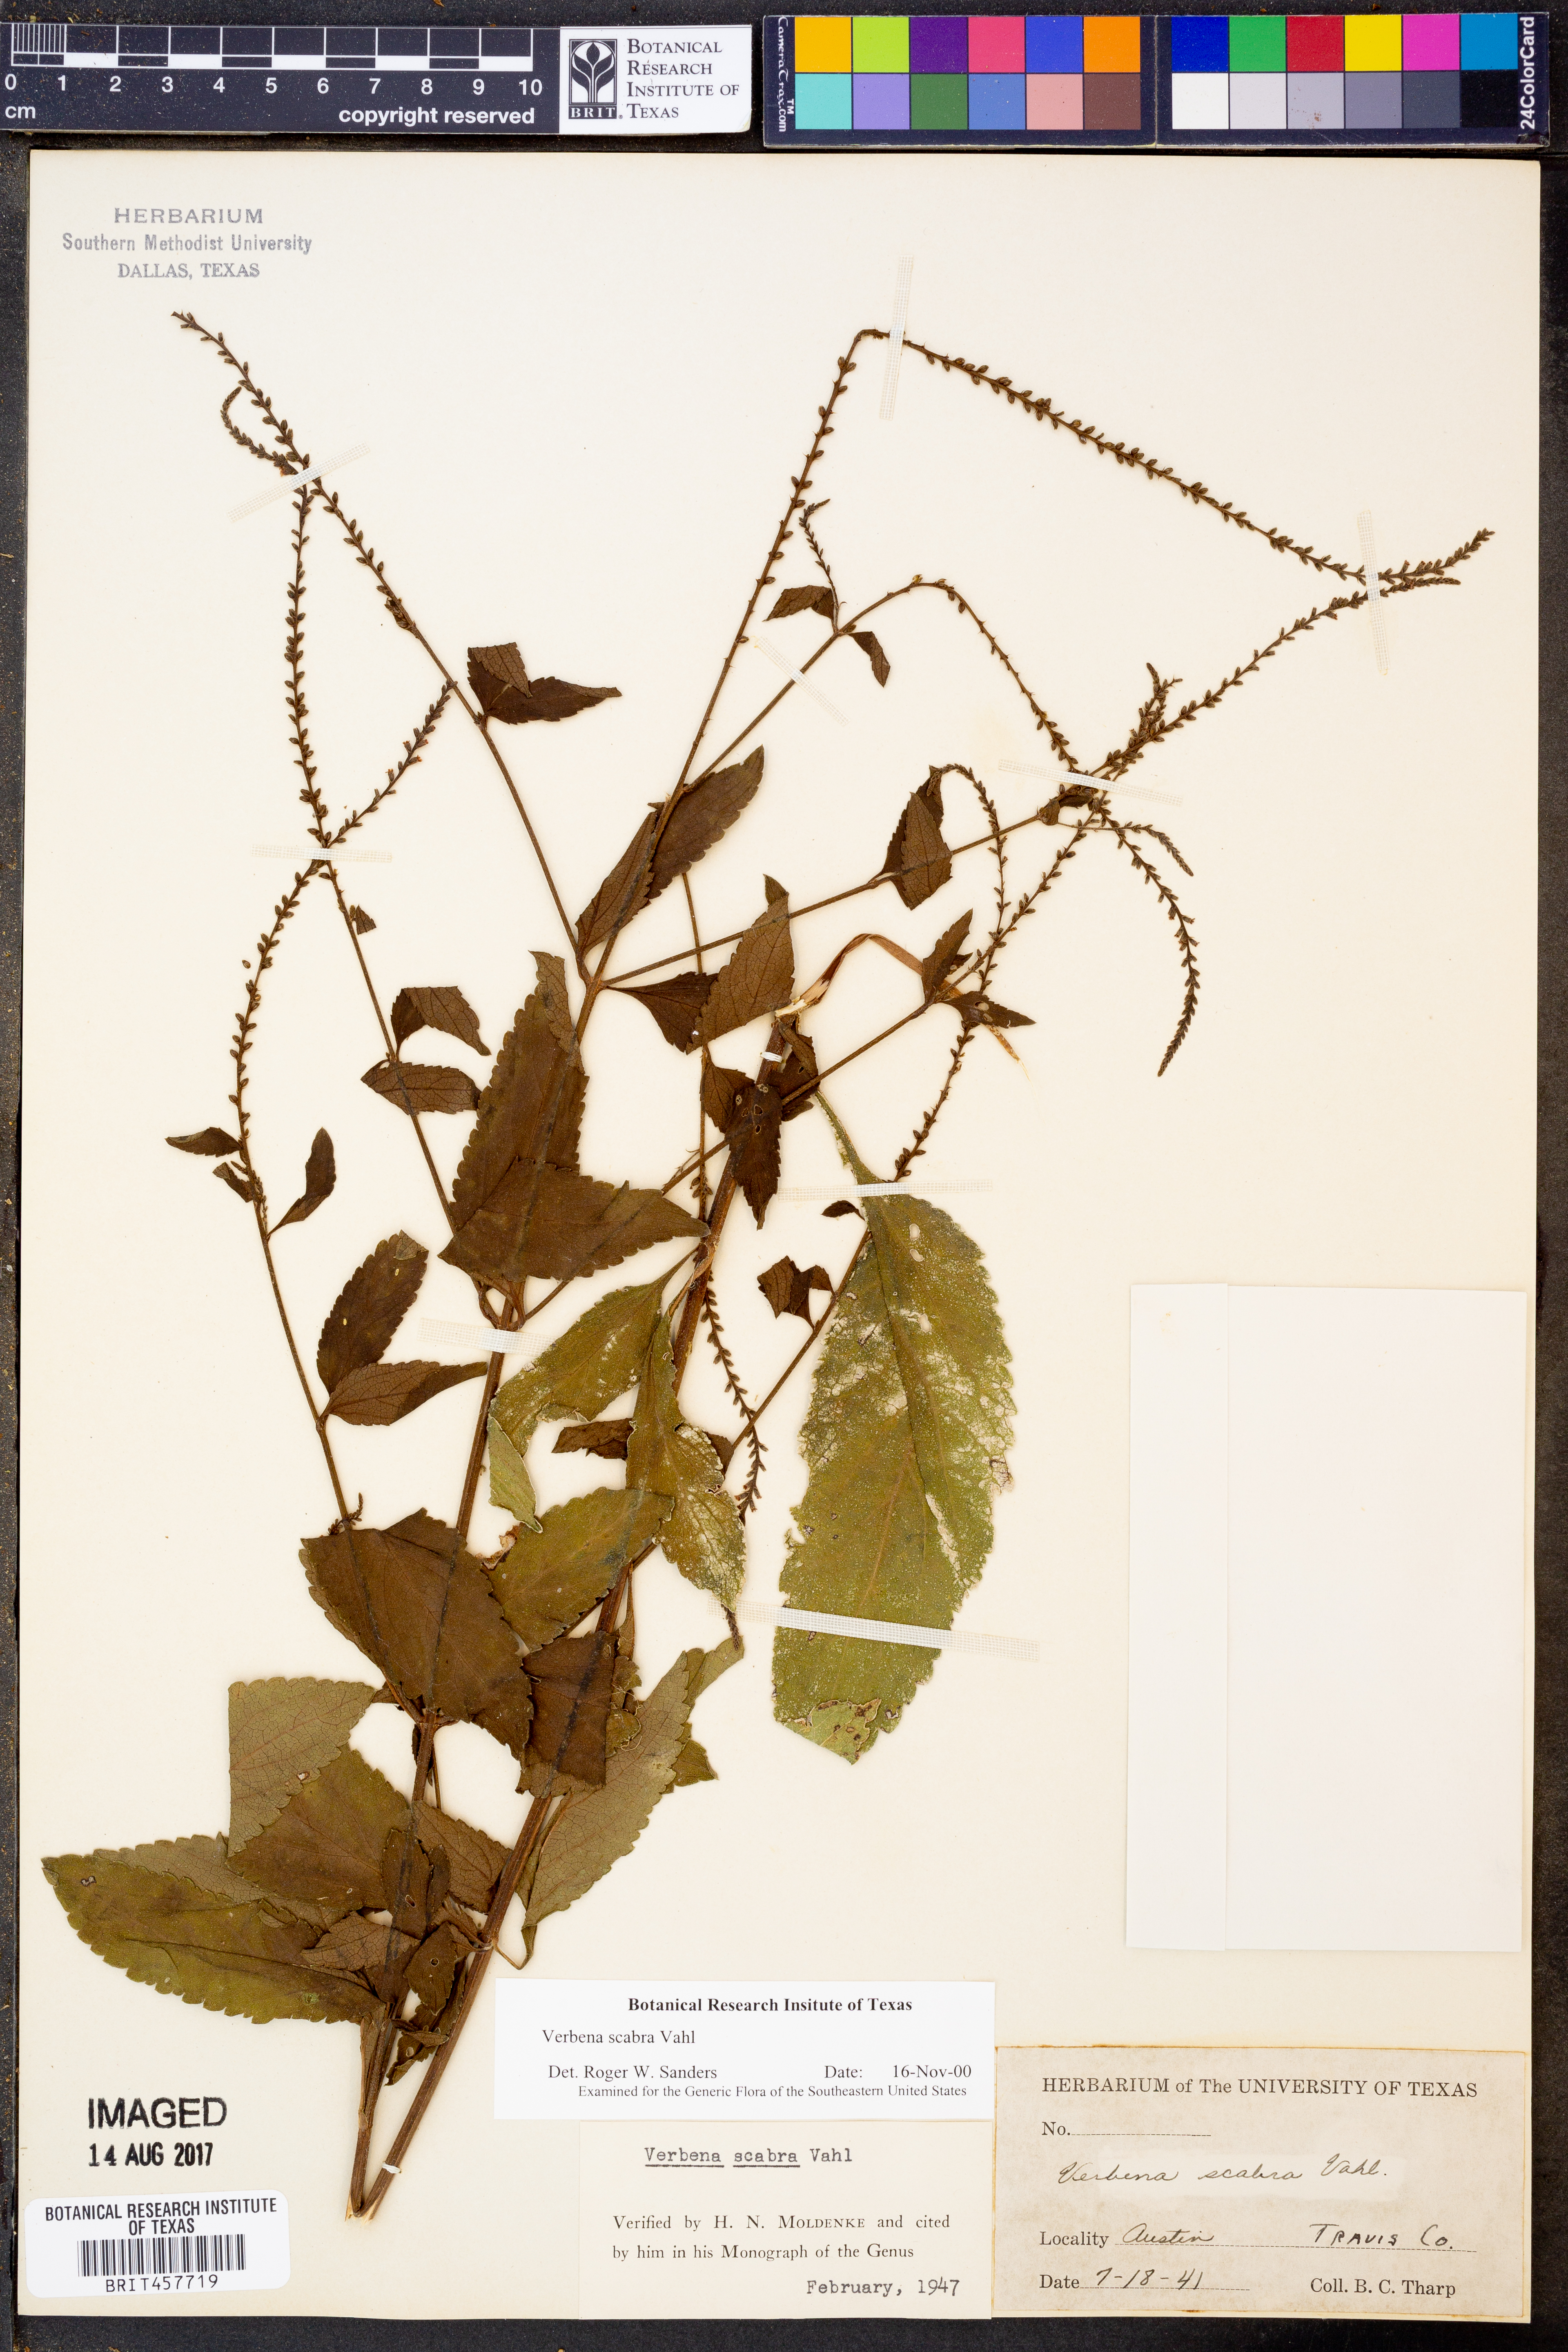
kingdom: Plantae
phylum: Tracheophyta
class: Magnoliopsida
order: Lamiales
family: Verbenaceae
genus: Verbena
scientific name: Verbena scabra
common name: Sandpaper vervain
